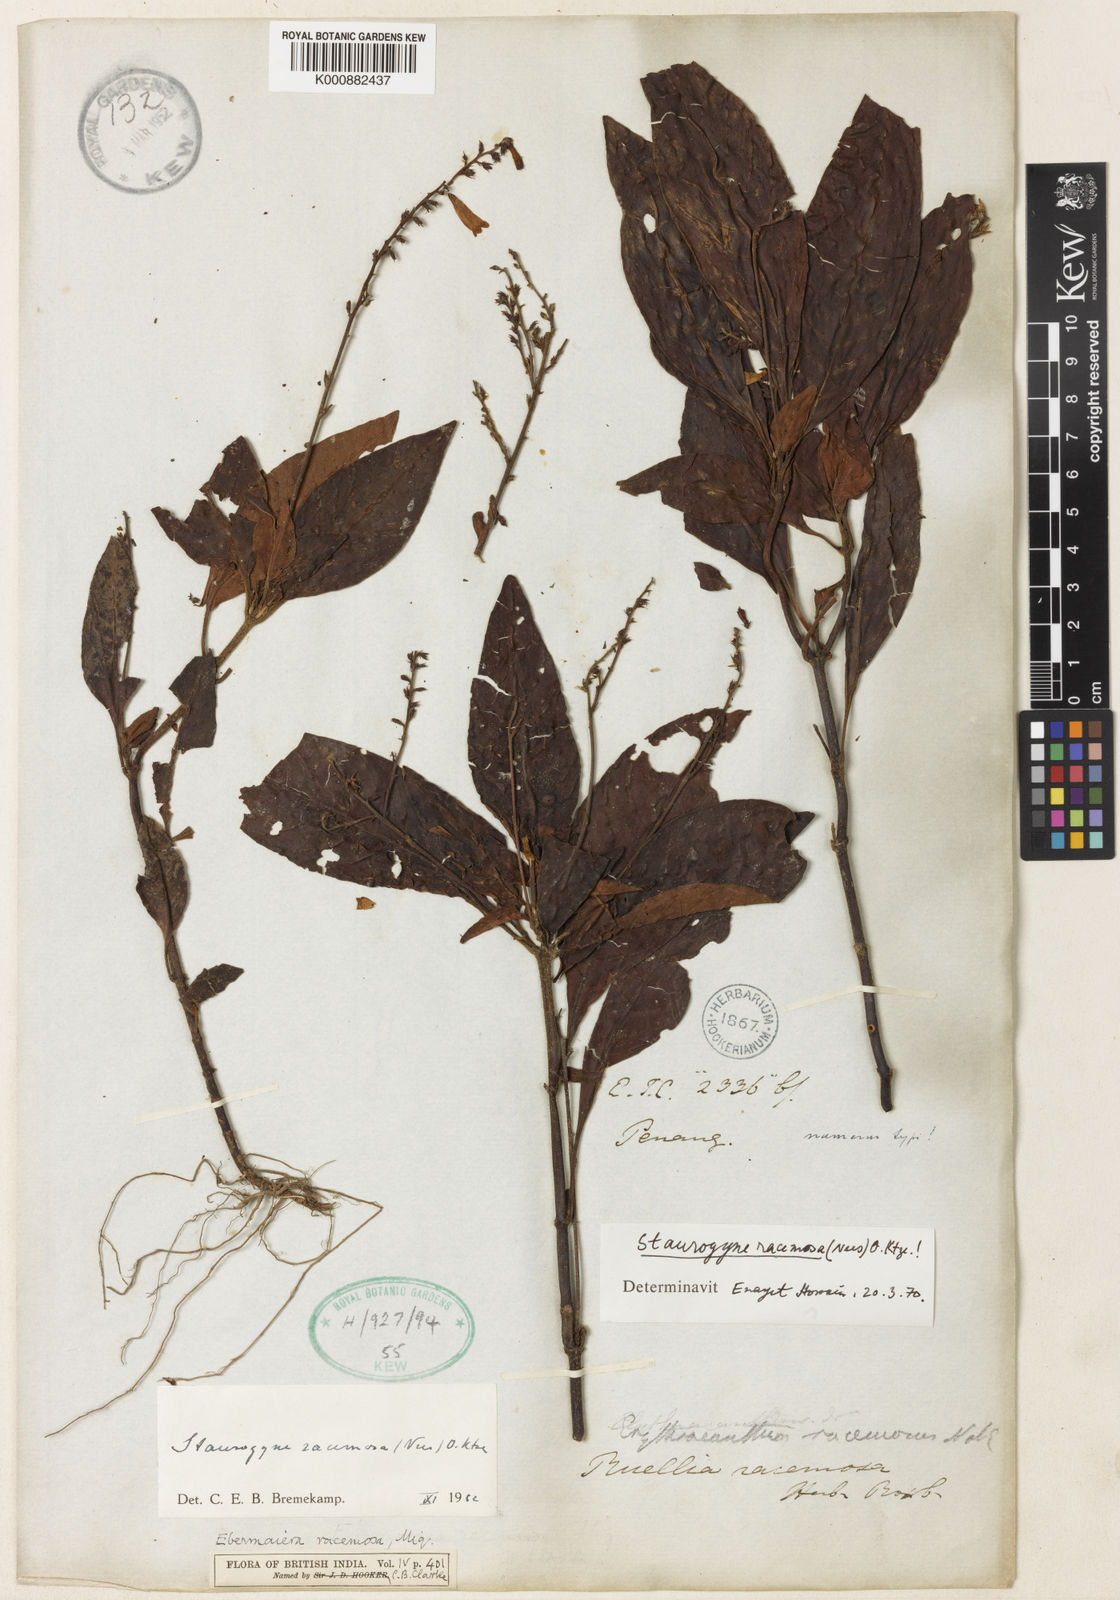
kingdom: Plantae
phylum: Tracheophyta
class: Magnoliopsida
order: Lamiales
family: Acanthaceae
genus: Staurogyne
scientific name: Staurogyne racemosa
